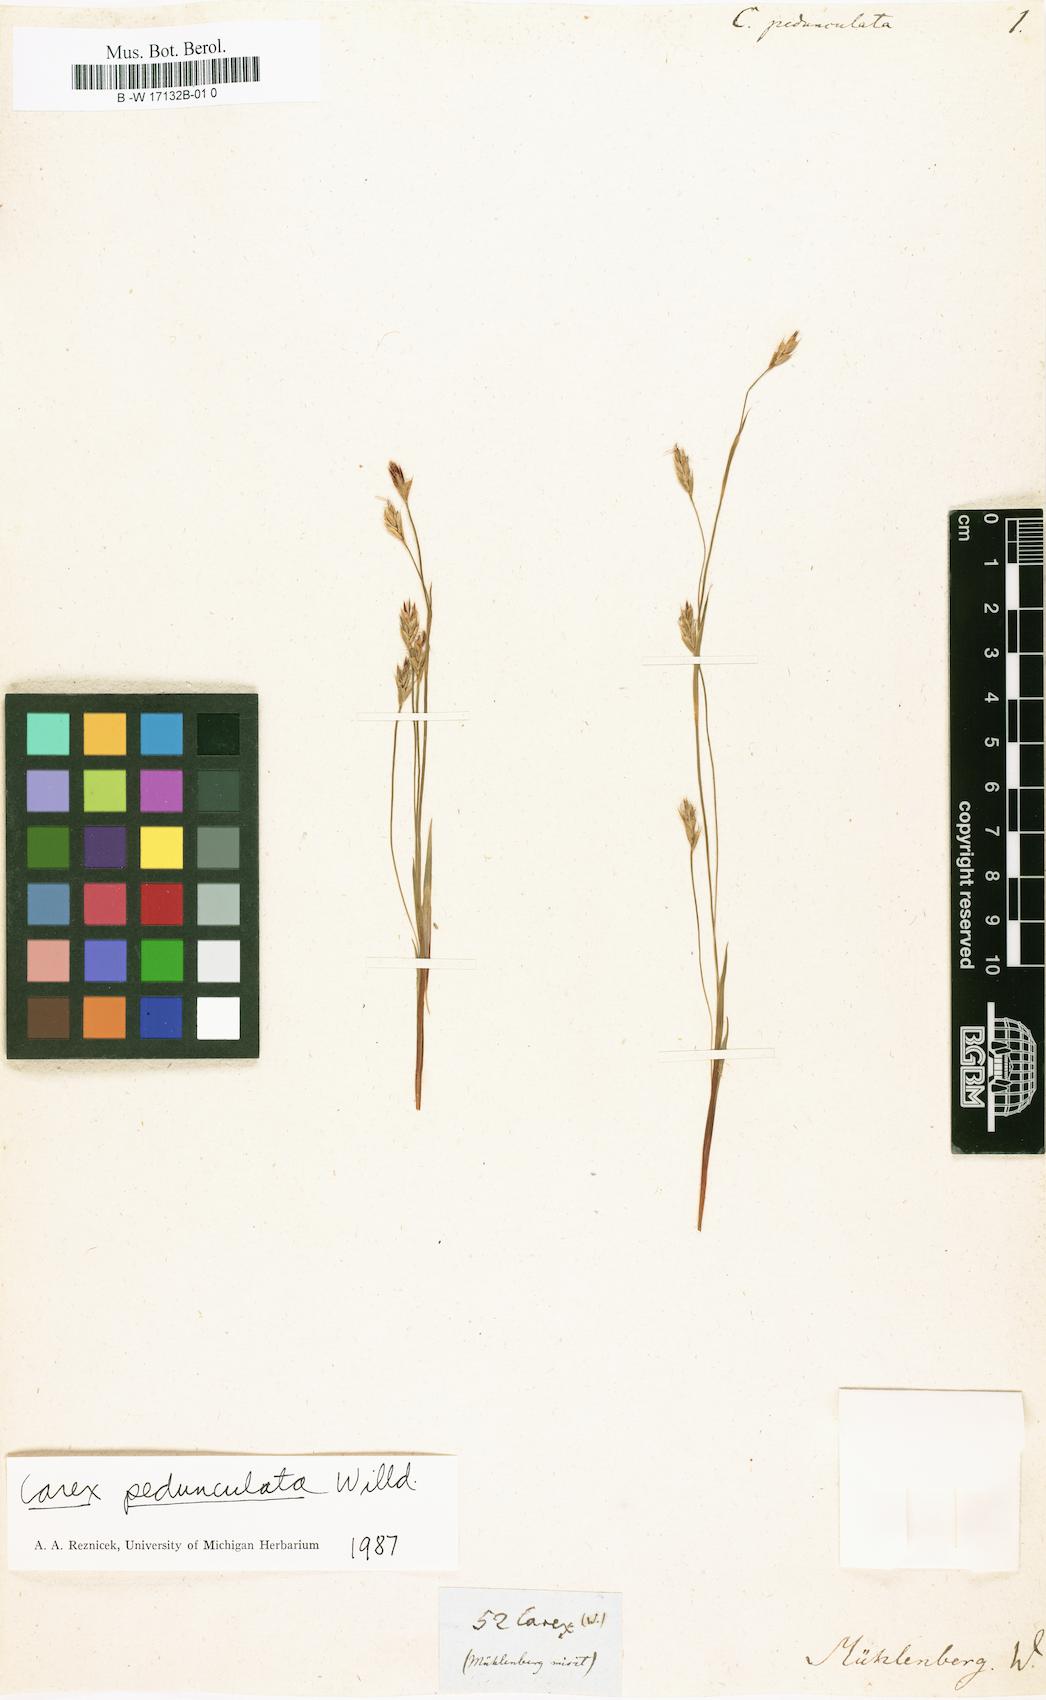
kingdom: Plantae
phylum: Tracheophyta
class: Liliopsida
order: Poales
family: Cyperaceae
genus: Carex
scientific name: Carex pedunculata
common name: Pedunculate sedge
